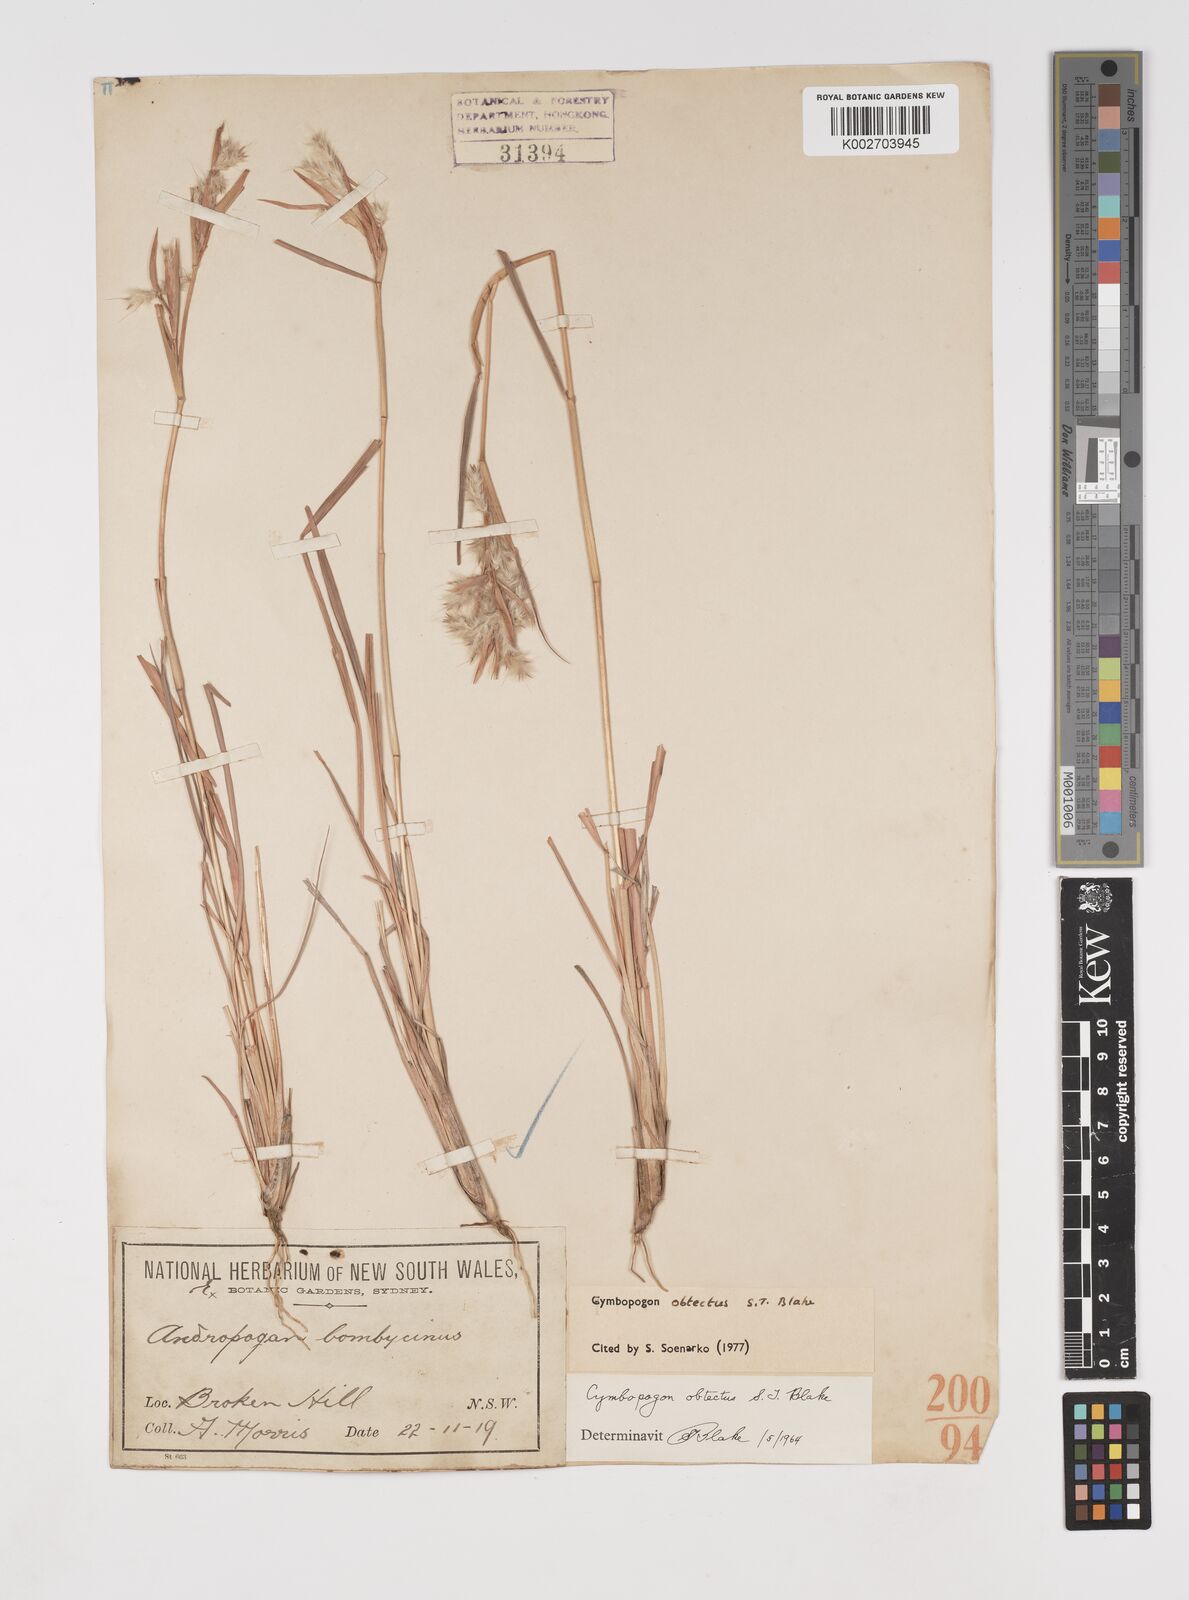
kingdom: Plantae
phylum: Tracheophyta
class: Liliopsida
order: Poales
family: Poaceae
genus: Cymbopogon
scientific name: Cymbopogon obtectus
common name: Silky heads
